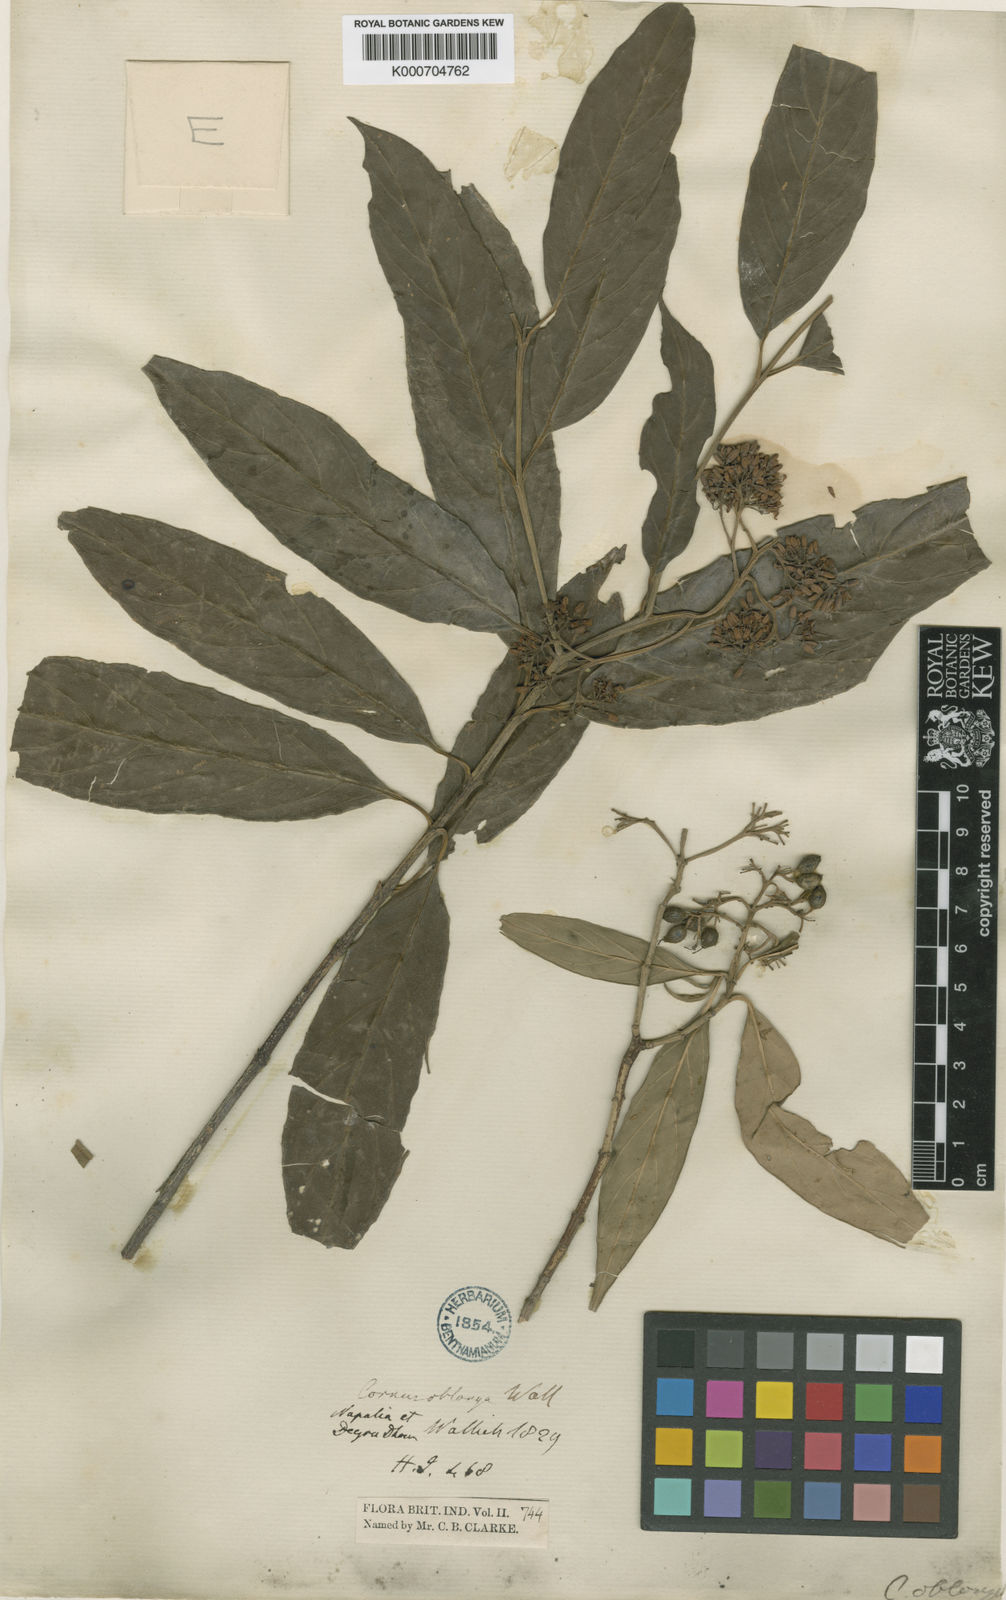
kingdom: Plantae
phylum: Tracheophyta
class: Magnoliopsida
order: Cornales
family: Cornaceae
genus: Cornus
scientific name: Cornus oblonga
